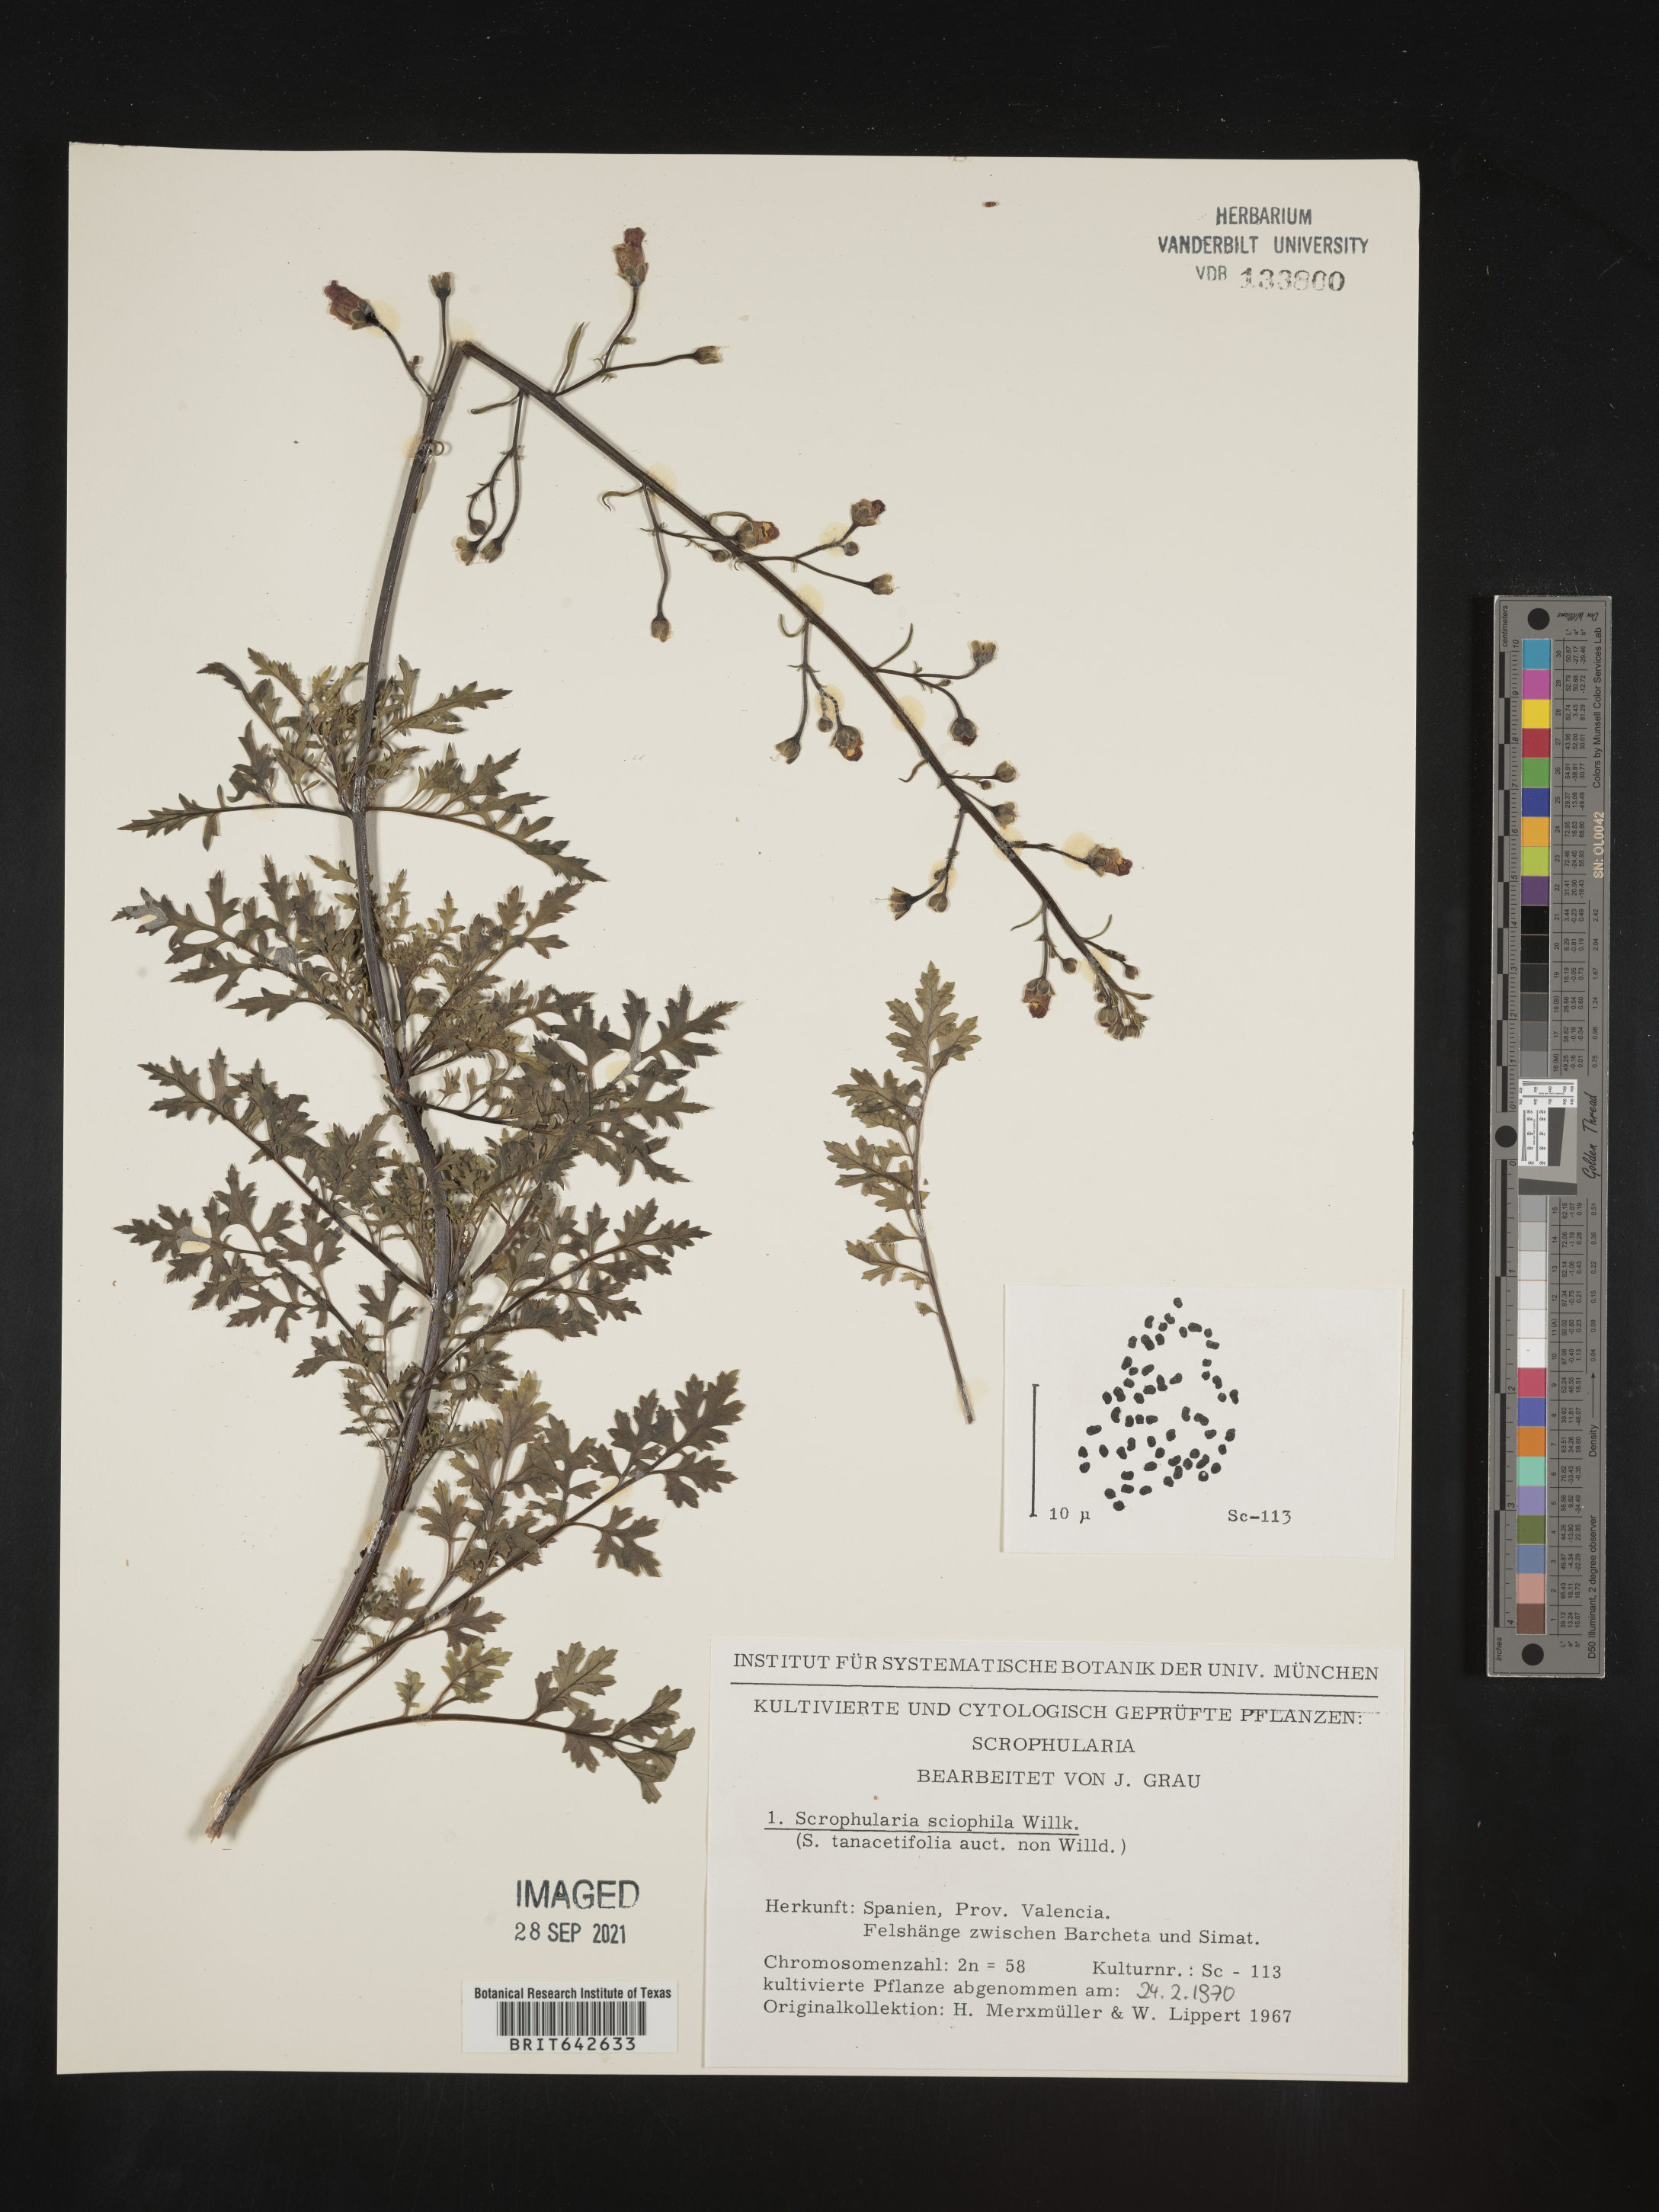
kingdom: Plantae
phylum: Tracheophyta
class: Magnoliopsida
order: Lamiales
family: Scrophulariaceae
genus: Scrophularia
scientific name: Scrophularia
